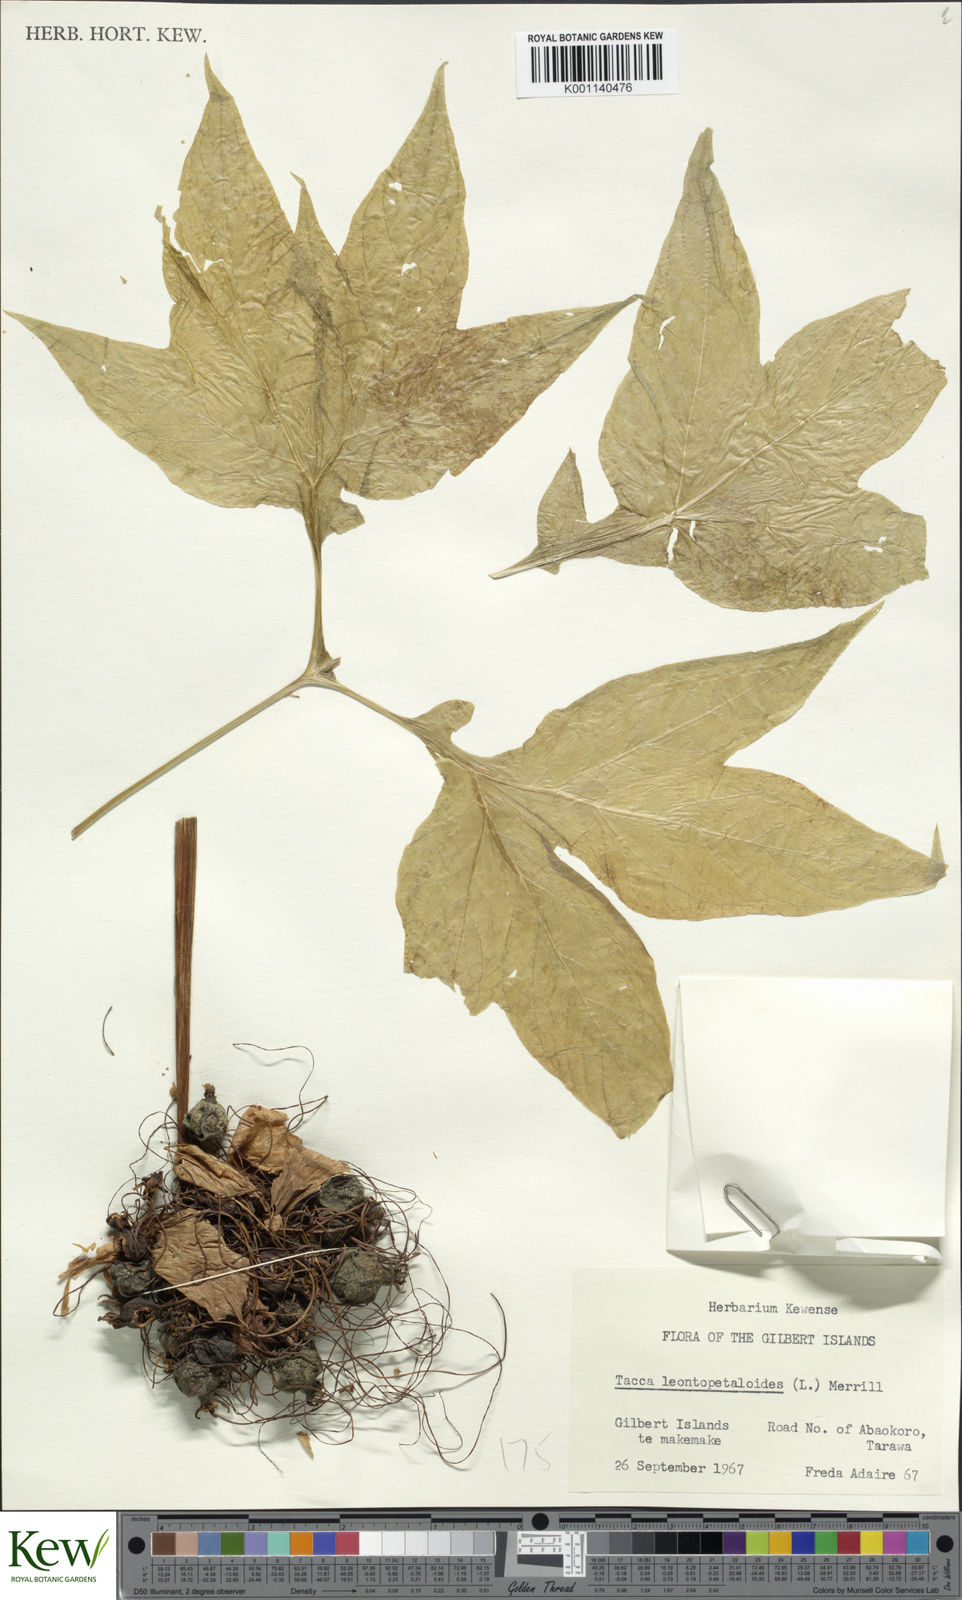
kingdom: Plantae
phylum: Tracheophyta
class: Liliopsida
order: Dioscoreales
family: Dioscoreaceae
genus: Tacca
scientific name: Tacca leontopetaloides
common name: Arrowroot
